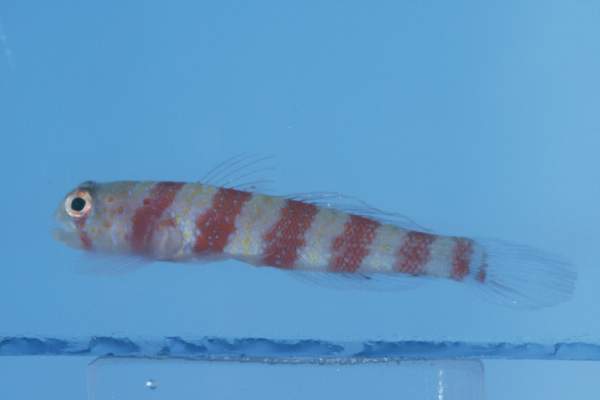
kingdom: Animalia
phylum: Chordata
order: Perciformes
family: Gobiidae
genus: Amblyeleotris
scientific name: Amblyeleotris wheeleri
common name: Gorgeous prawn-goby
